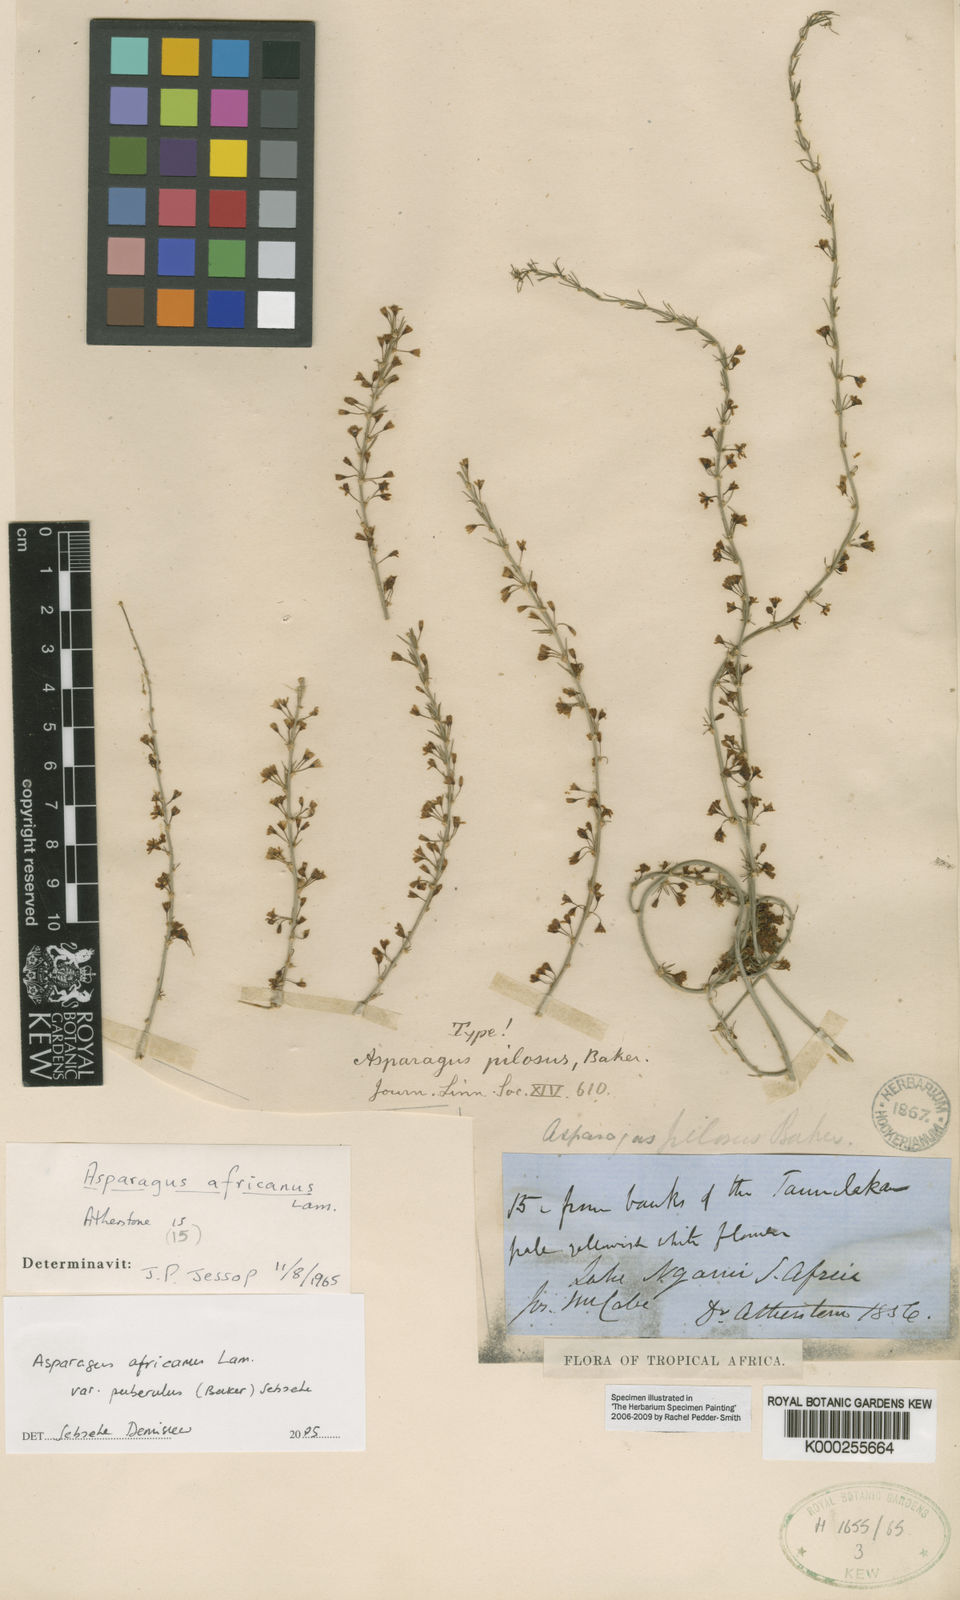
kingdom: Plantae
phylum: Tracheophyta
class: Liliopsida
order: Asparagales
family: Asparagaceae
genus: Asparagus
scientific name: Asparagus africanus
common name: Asparagus-fern
